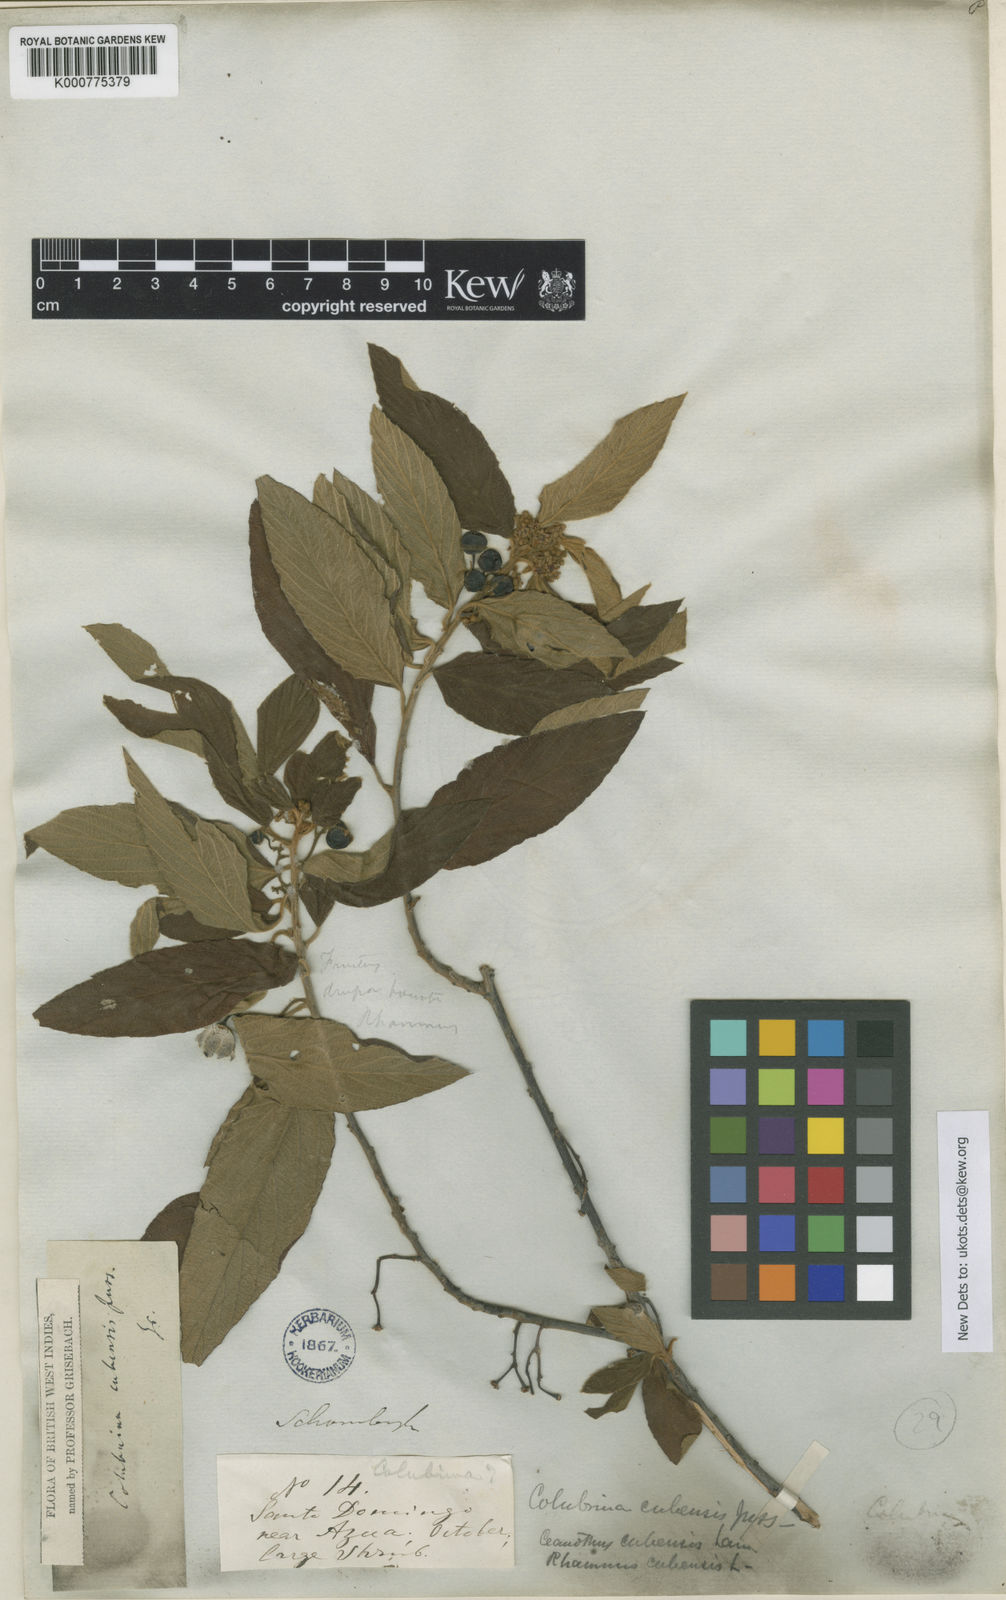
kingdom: Plantae
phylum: Tracheophyta
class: Magnoliopsida
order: Rosales
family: Rhamnaceae
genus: Colubrina
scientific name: Colubrina cubensis
